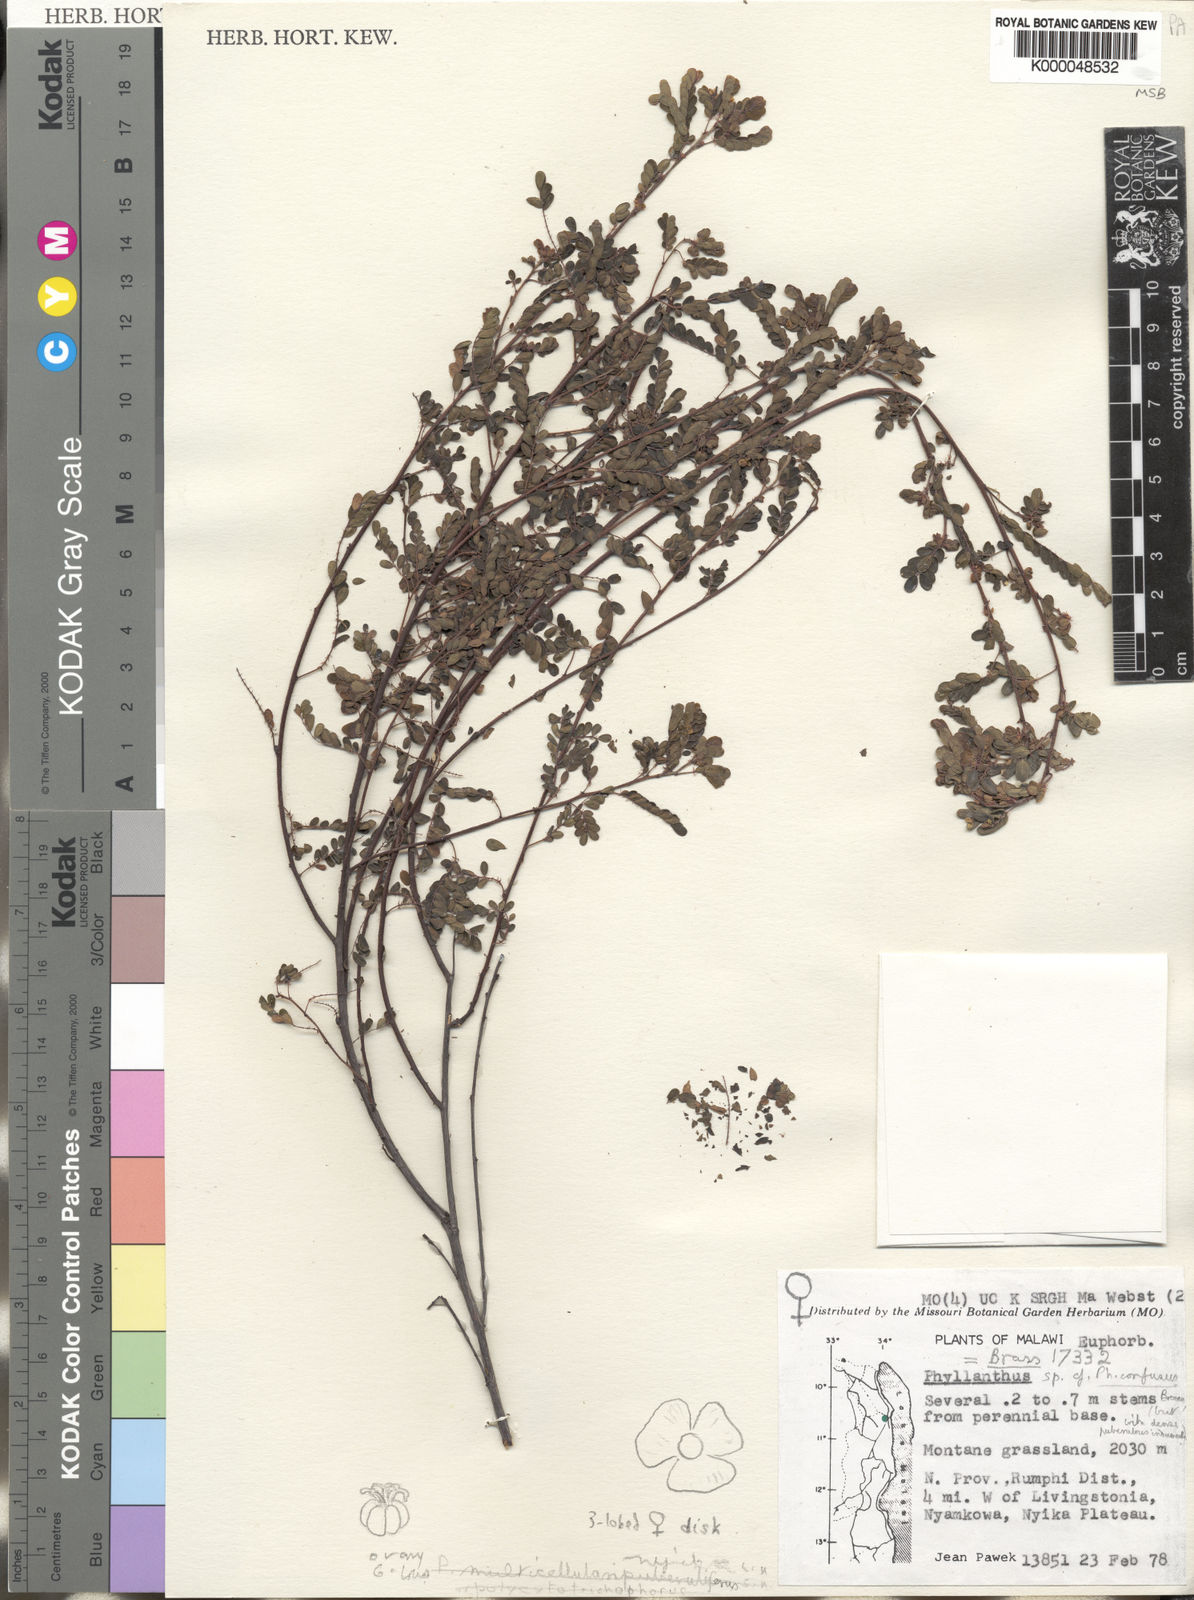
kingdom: Plantae
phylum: Tracheophyta
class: Magnoliopsida
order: Malpighiales
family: Phyllanthaceae
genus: Phyllanthus
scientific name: Phyllanthus nyikae
